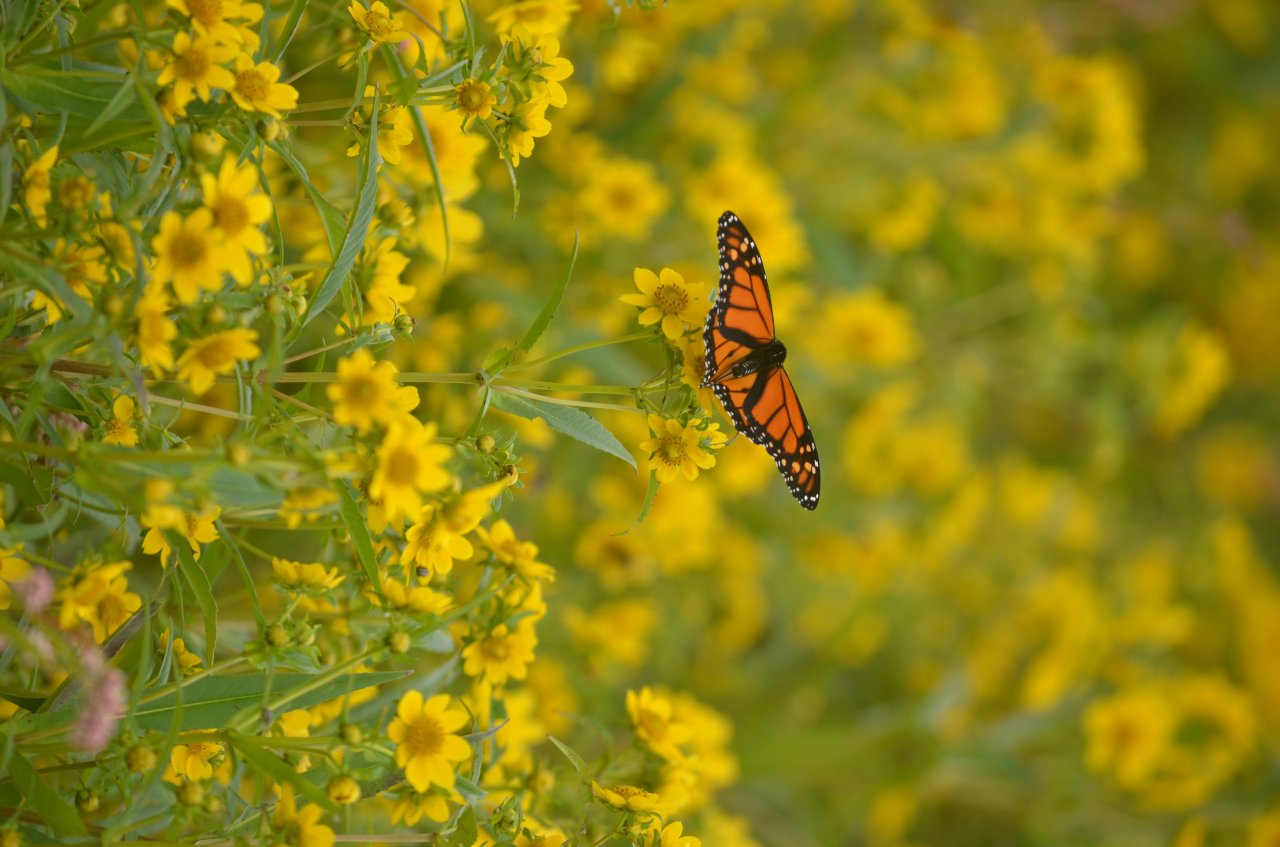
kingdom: Animalia
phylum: Arthropoda
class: Insecta
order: Lepidoptera
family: Nymphalidae
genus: Danaus
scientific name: Danaus plexippus
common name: Monarch
